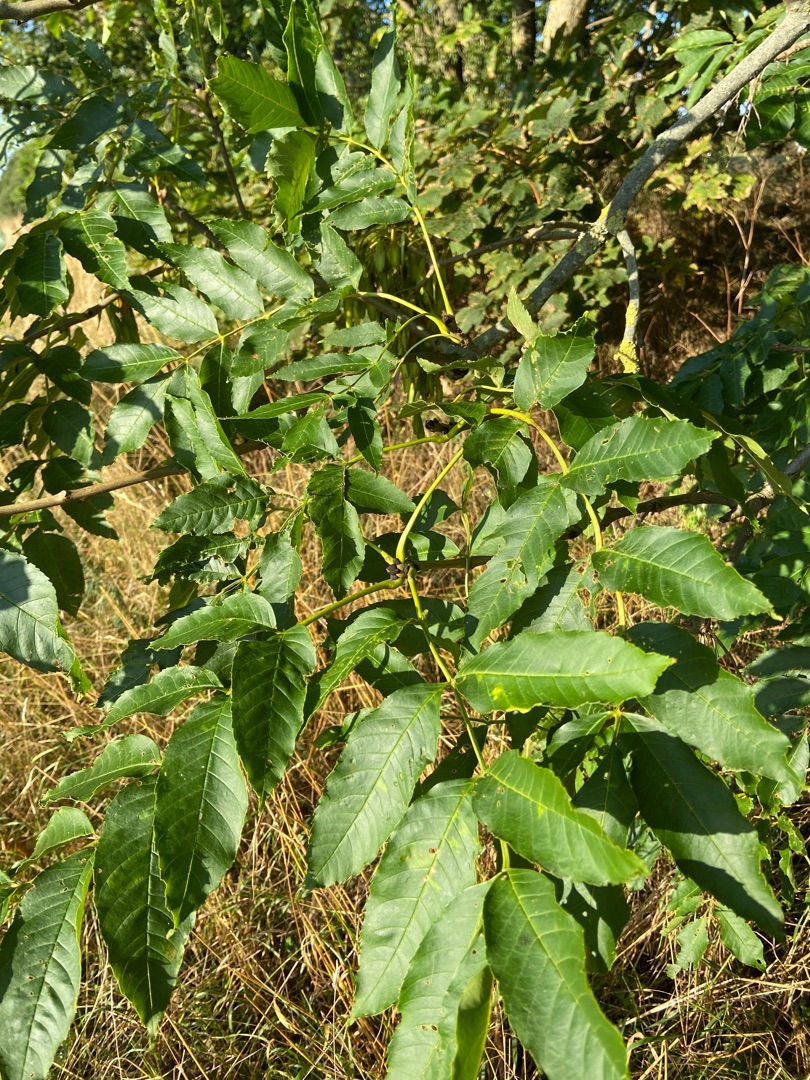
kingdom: Plantae
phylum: Tracheophyta
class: Magnoliopsida
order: Fagales
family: Juglandaceae
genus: Juglans
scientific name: Juglans regia
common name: Almindelig valnød
